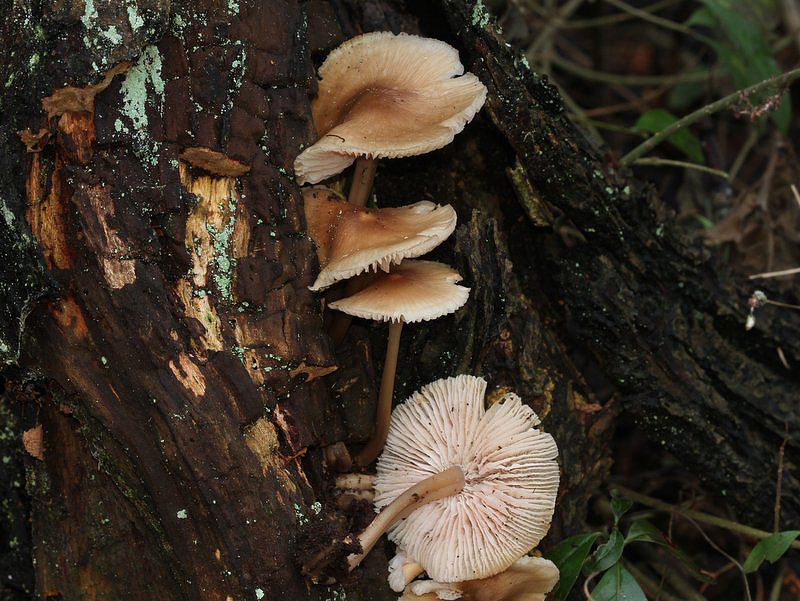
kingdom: Fungi
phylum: Basidiomycota
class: Agaricomycetes
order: Agaricales
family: Mycenaceae
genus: Mycena
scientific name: Mycena galericulata
